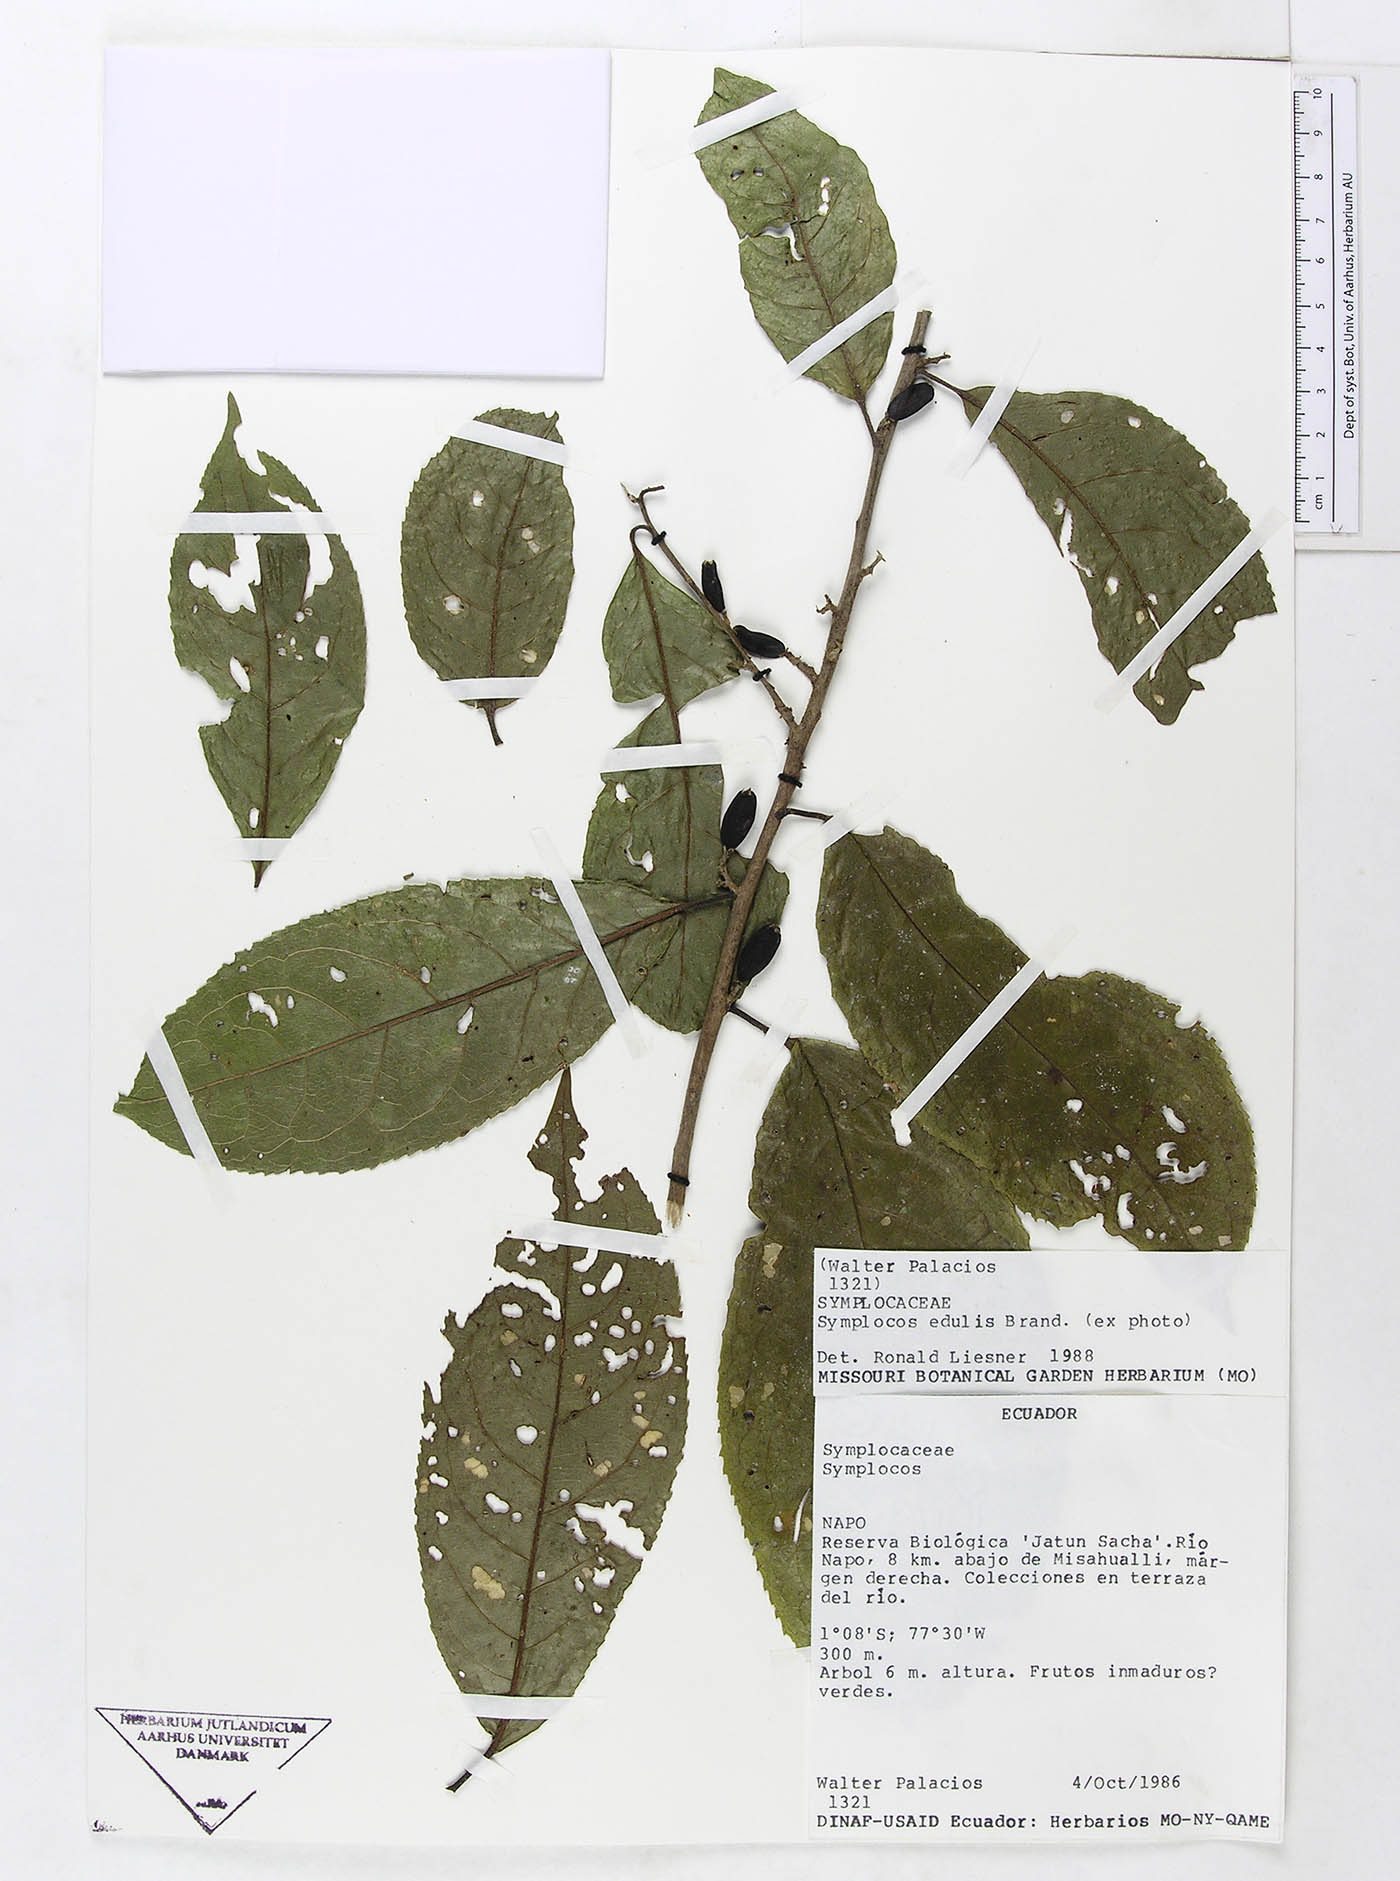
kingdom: Plantae
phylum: Tracheophyta
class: Magnoliopsida
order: Ericales
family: Symplocaceae
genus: Symplocos
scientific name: Symplocos arechea
